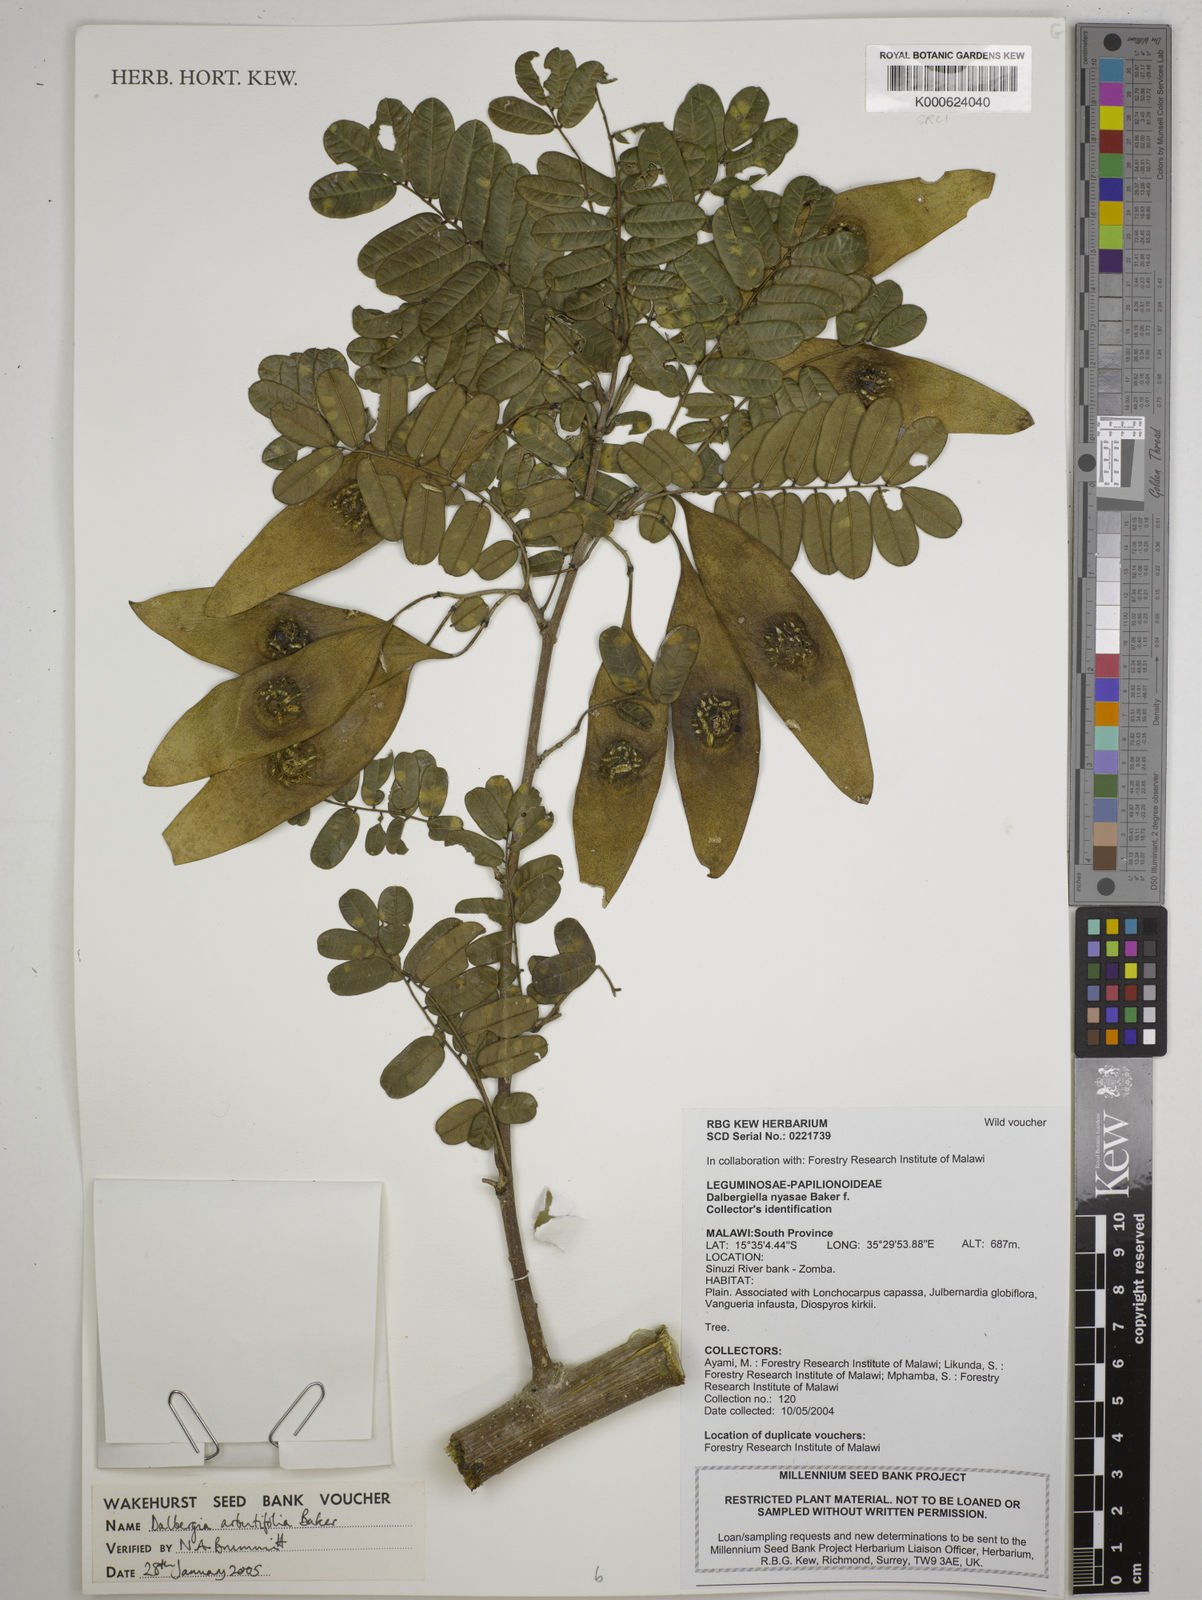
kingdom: Plantae
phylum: Tracheophyta
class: Magnoliopsida
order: Fabales
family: Fabaceae
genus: Dalbergia
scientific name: Dalbergia arbutifolia
